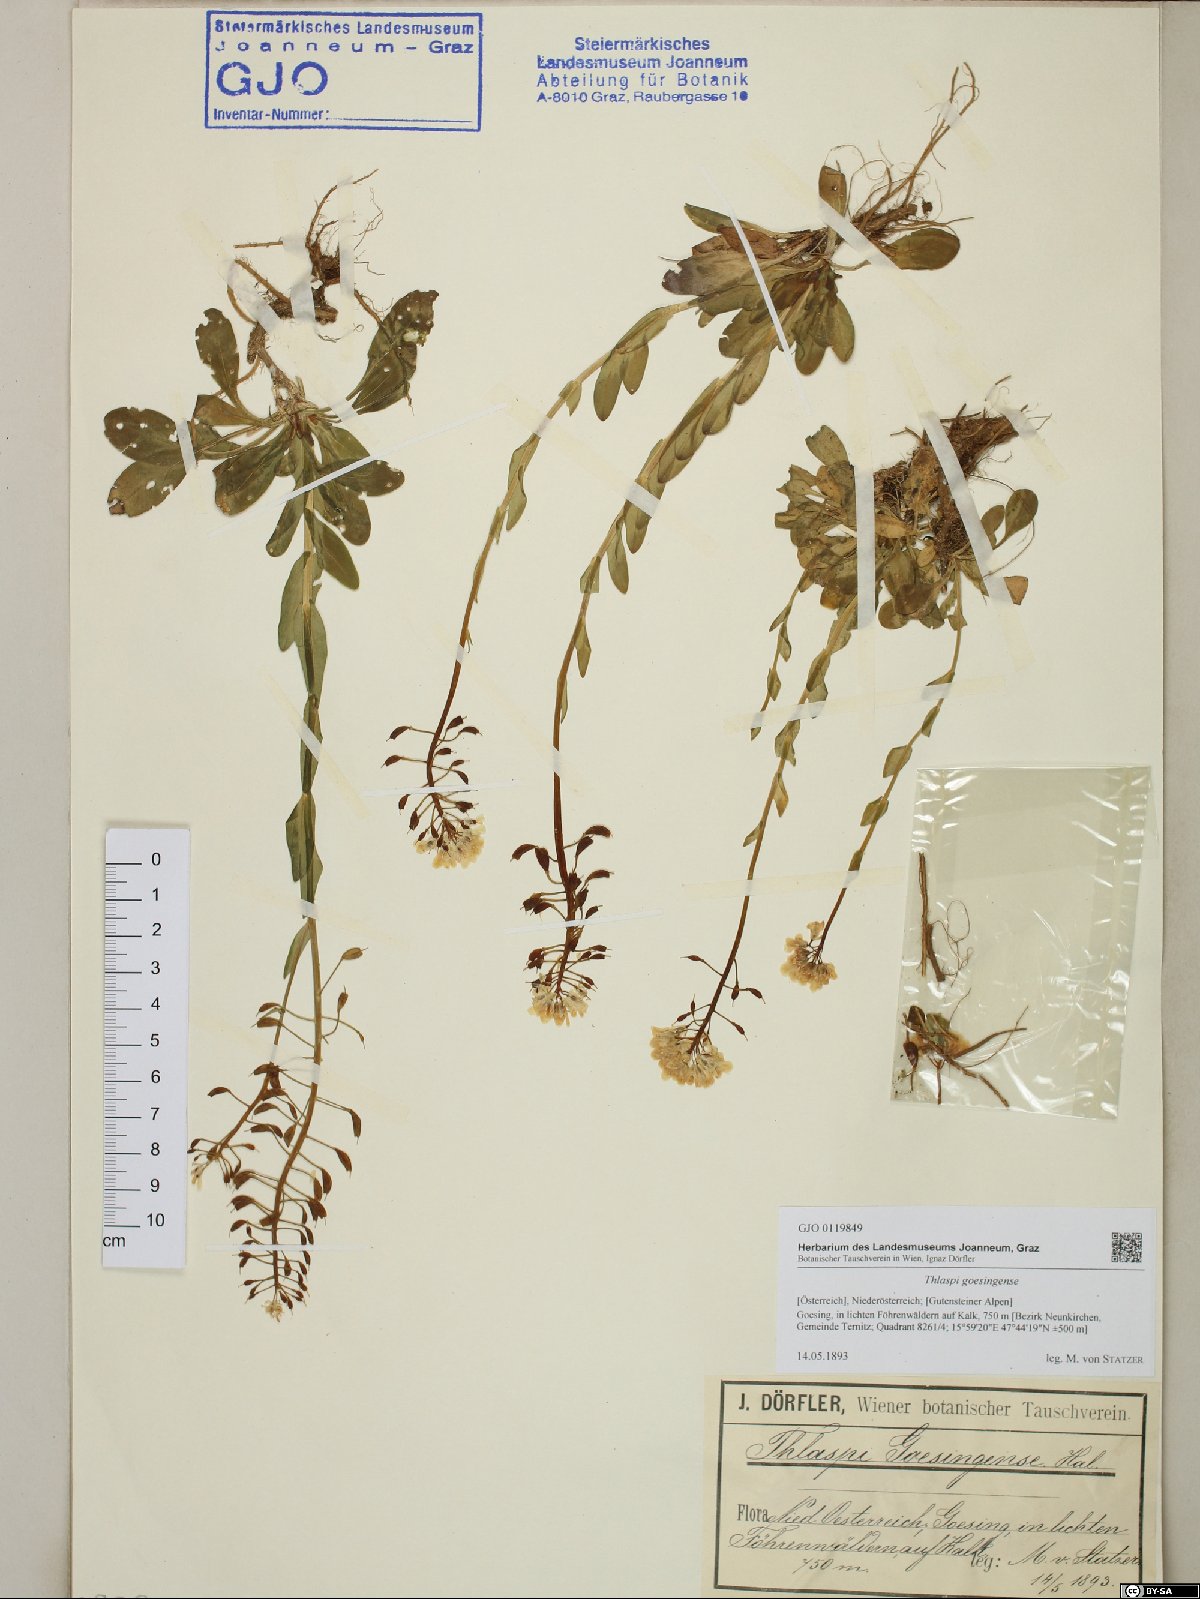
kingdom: Plantae
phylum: Tracheophyta
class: Magnoliopsida
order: Brassicales
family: Brassicaceae
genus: Noccaea
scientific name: Noccaea goesingensis
